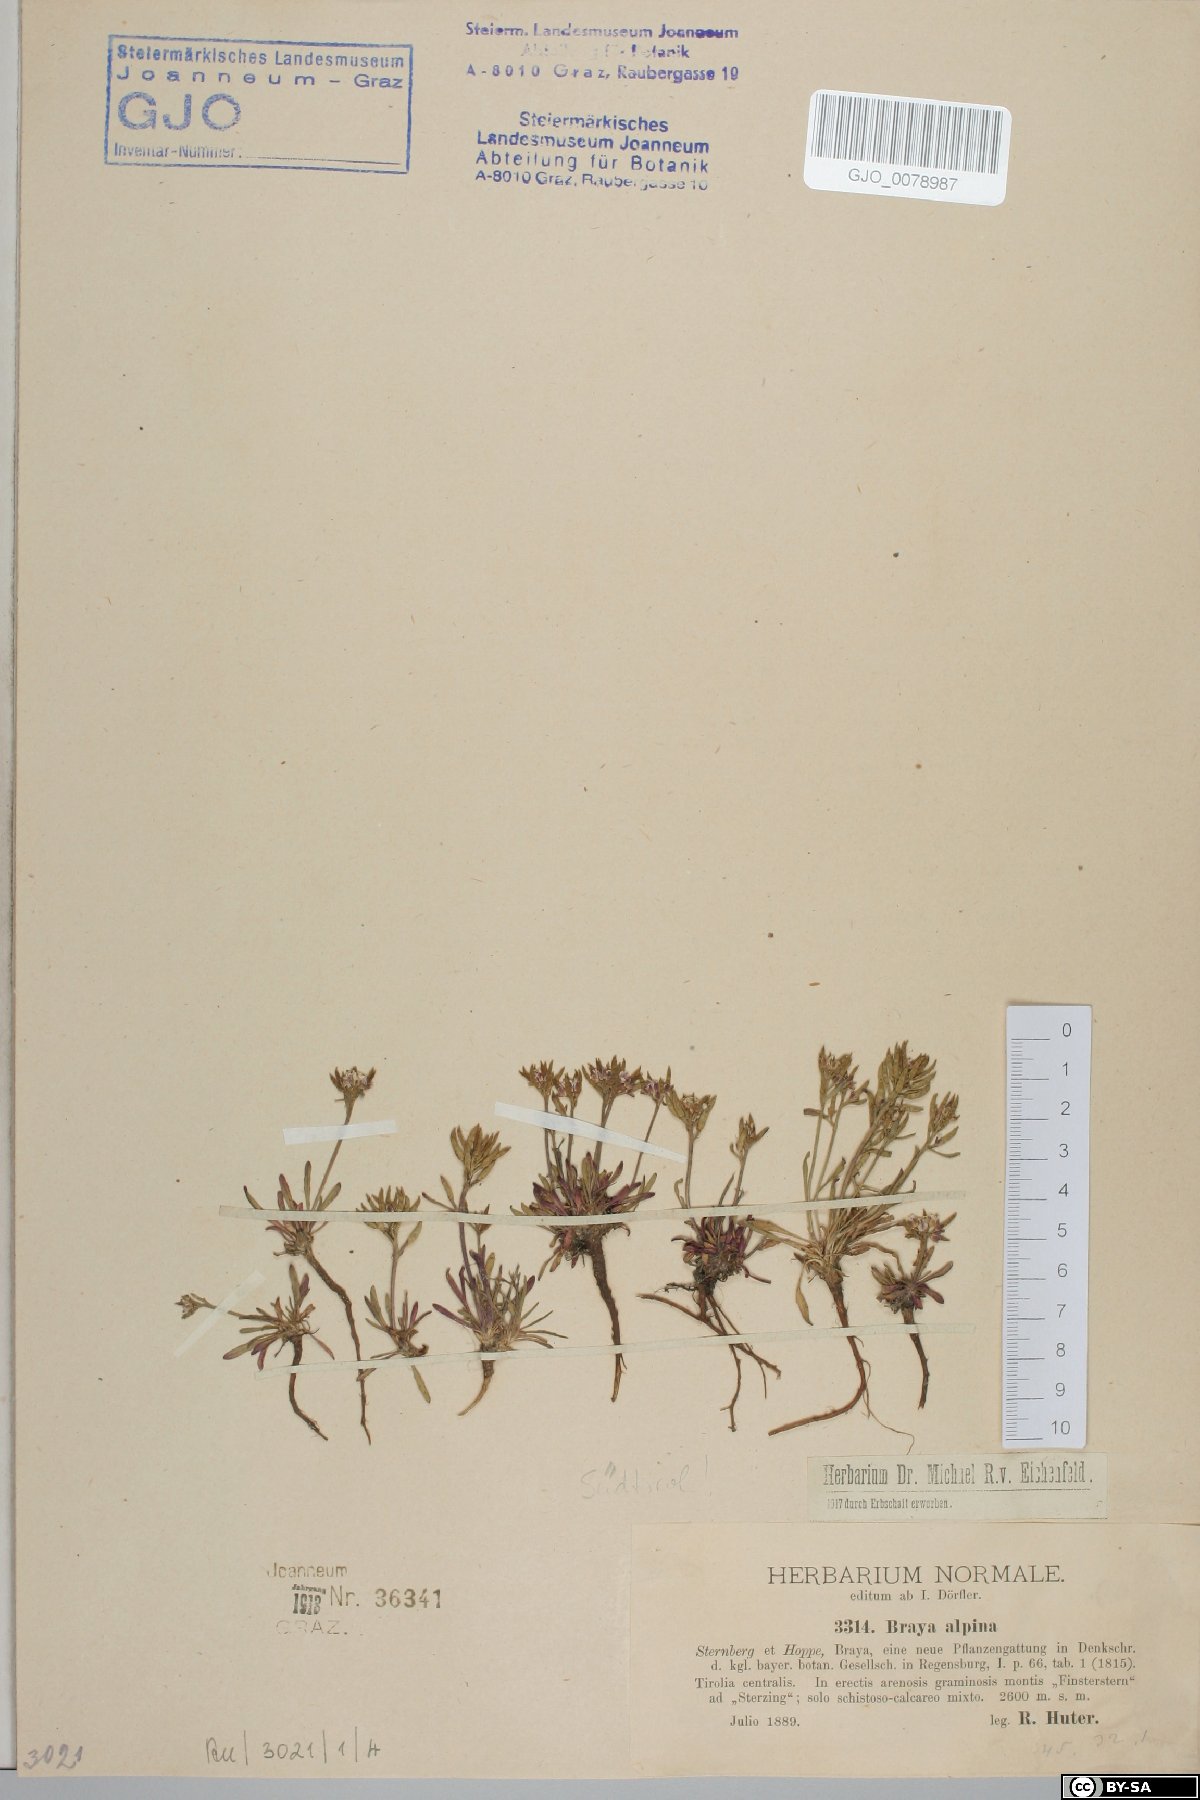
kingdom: Plantae
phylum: Tracheophyta
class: Magnoliopsida
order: Brassicales
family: Brassicaceae
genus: Braya
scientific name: Braya alpina
